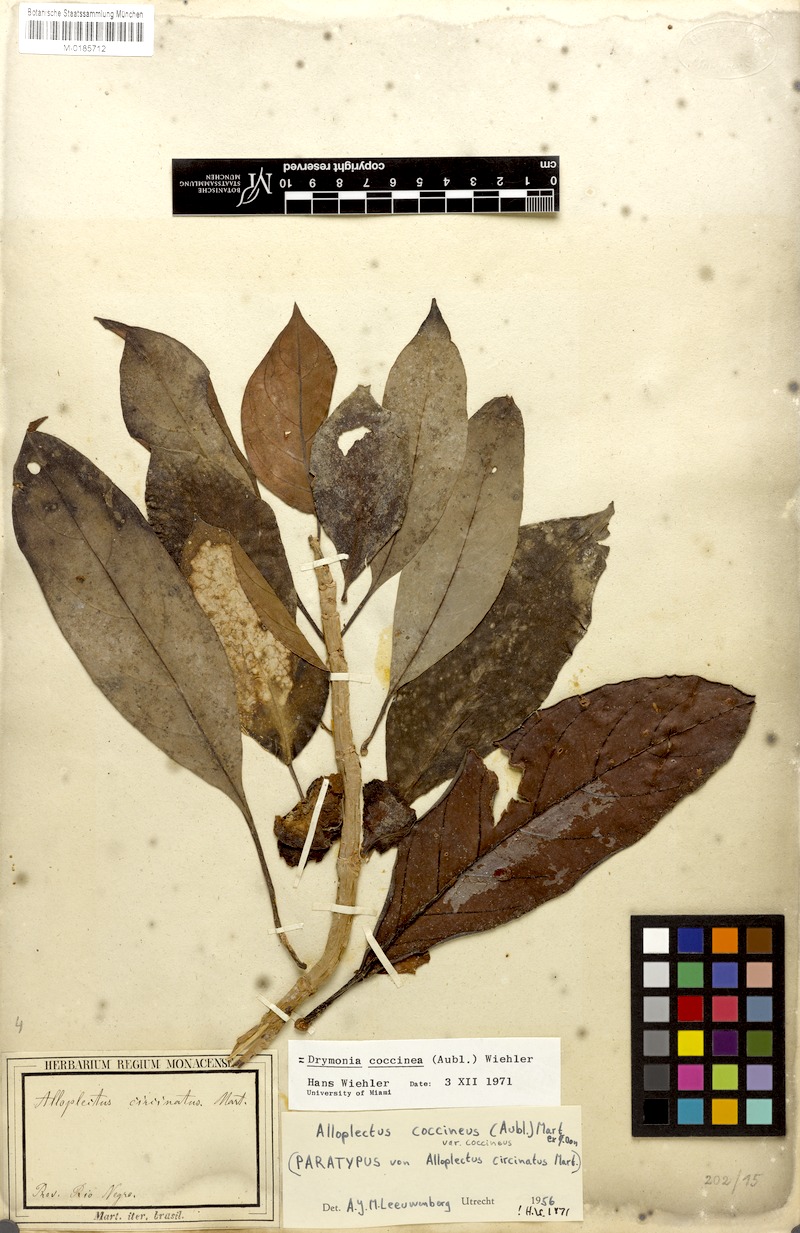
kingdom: Plantae
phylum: Tracheophyta
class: Magnoliopsida
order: Lamiales
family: Gesneriaceae
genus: Drymonia
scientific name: Drymonia coccinea
